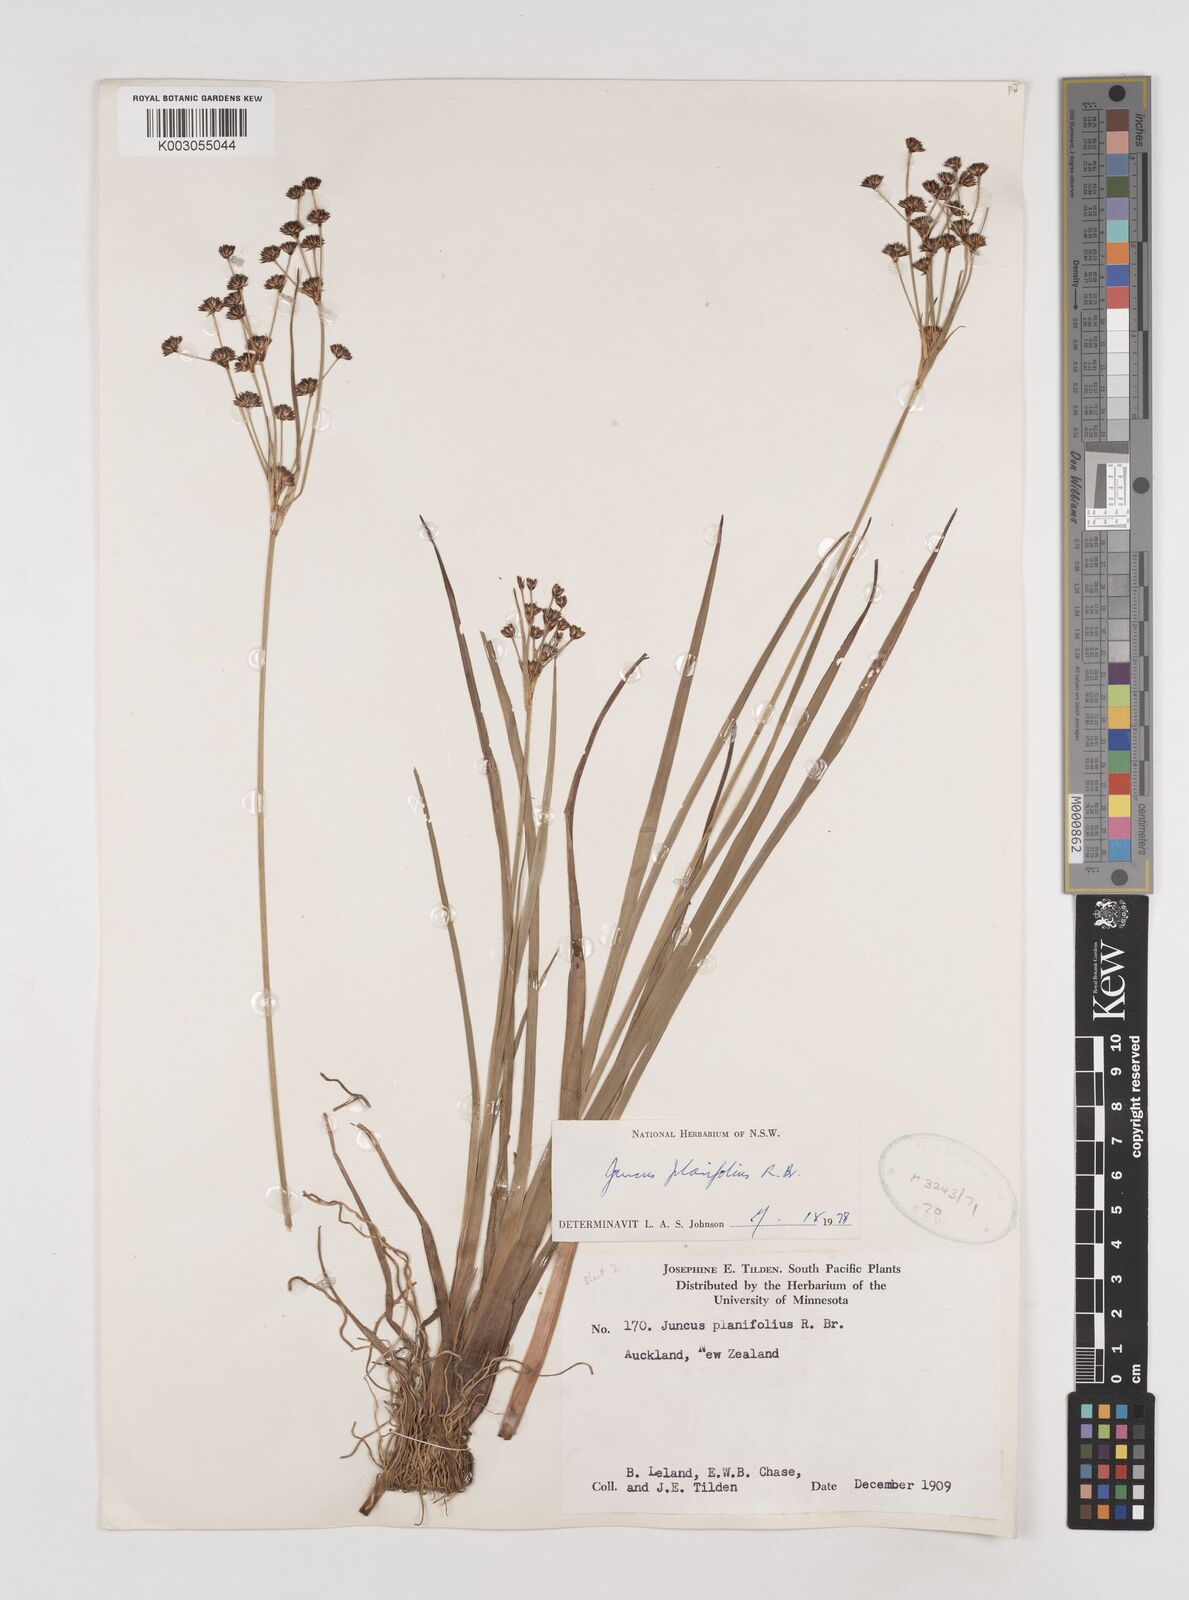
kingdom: Plantae
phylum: Tracheophyta
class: Liliopsida
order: Poales
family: Juncaceae
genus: Juncus
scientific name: Juncus planifolius
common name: Broadleaf rush
